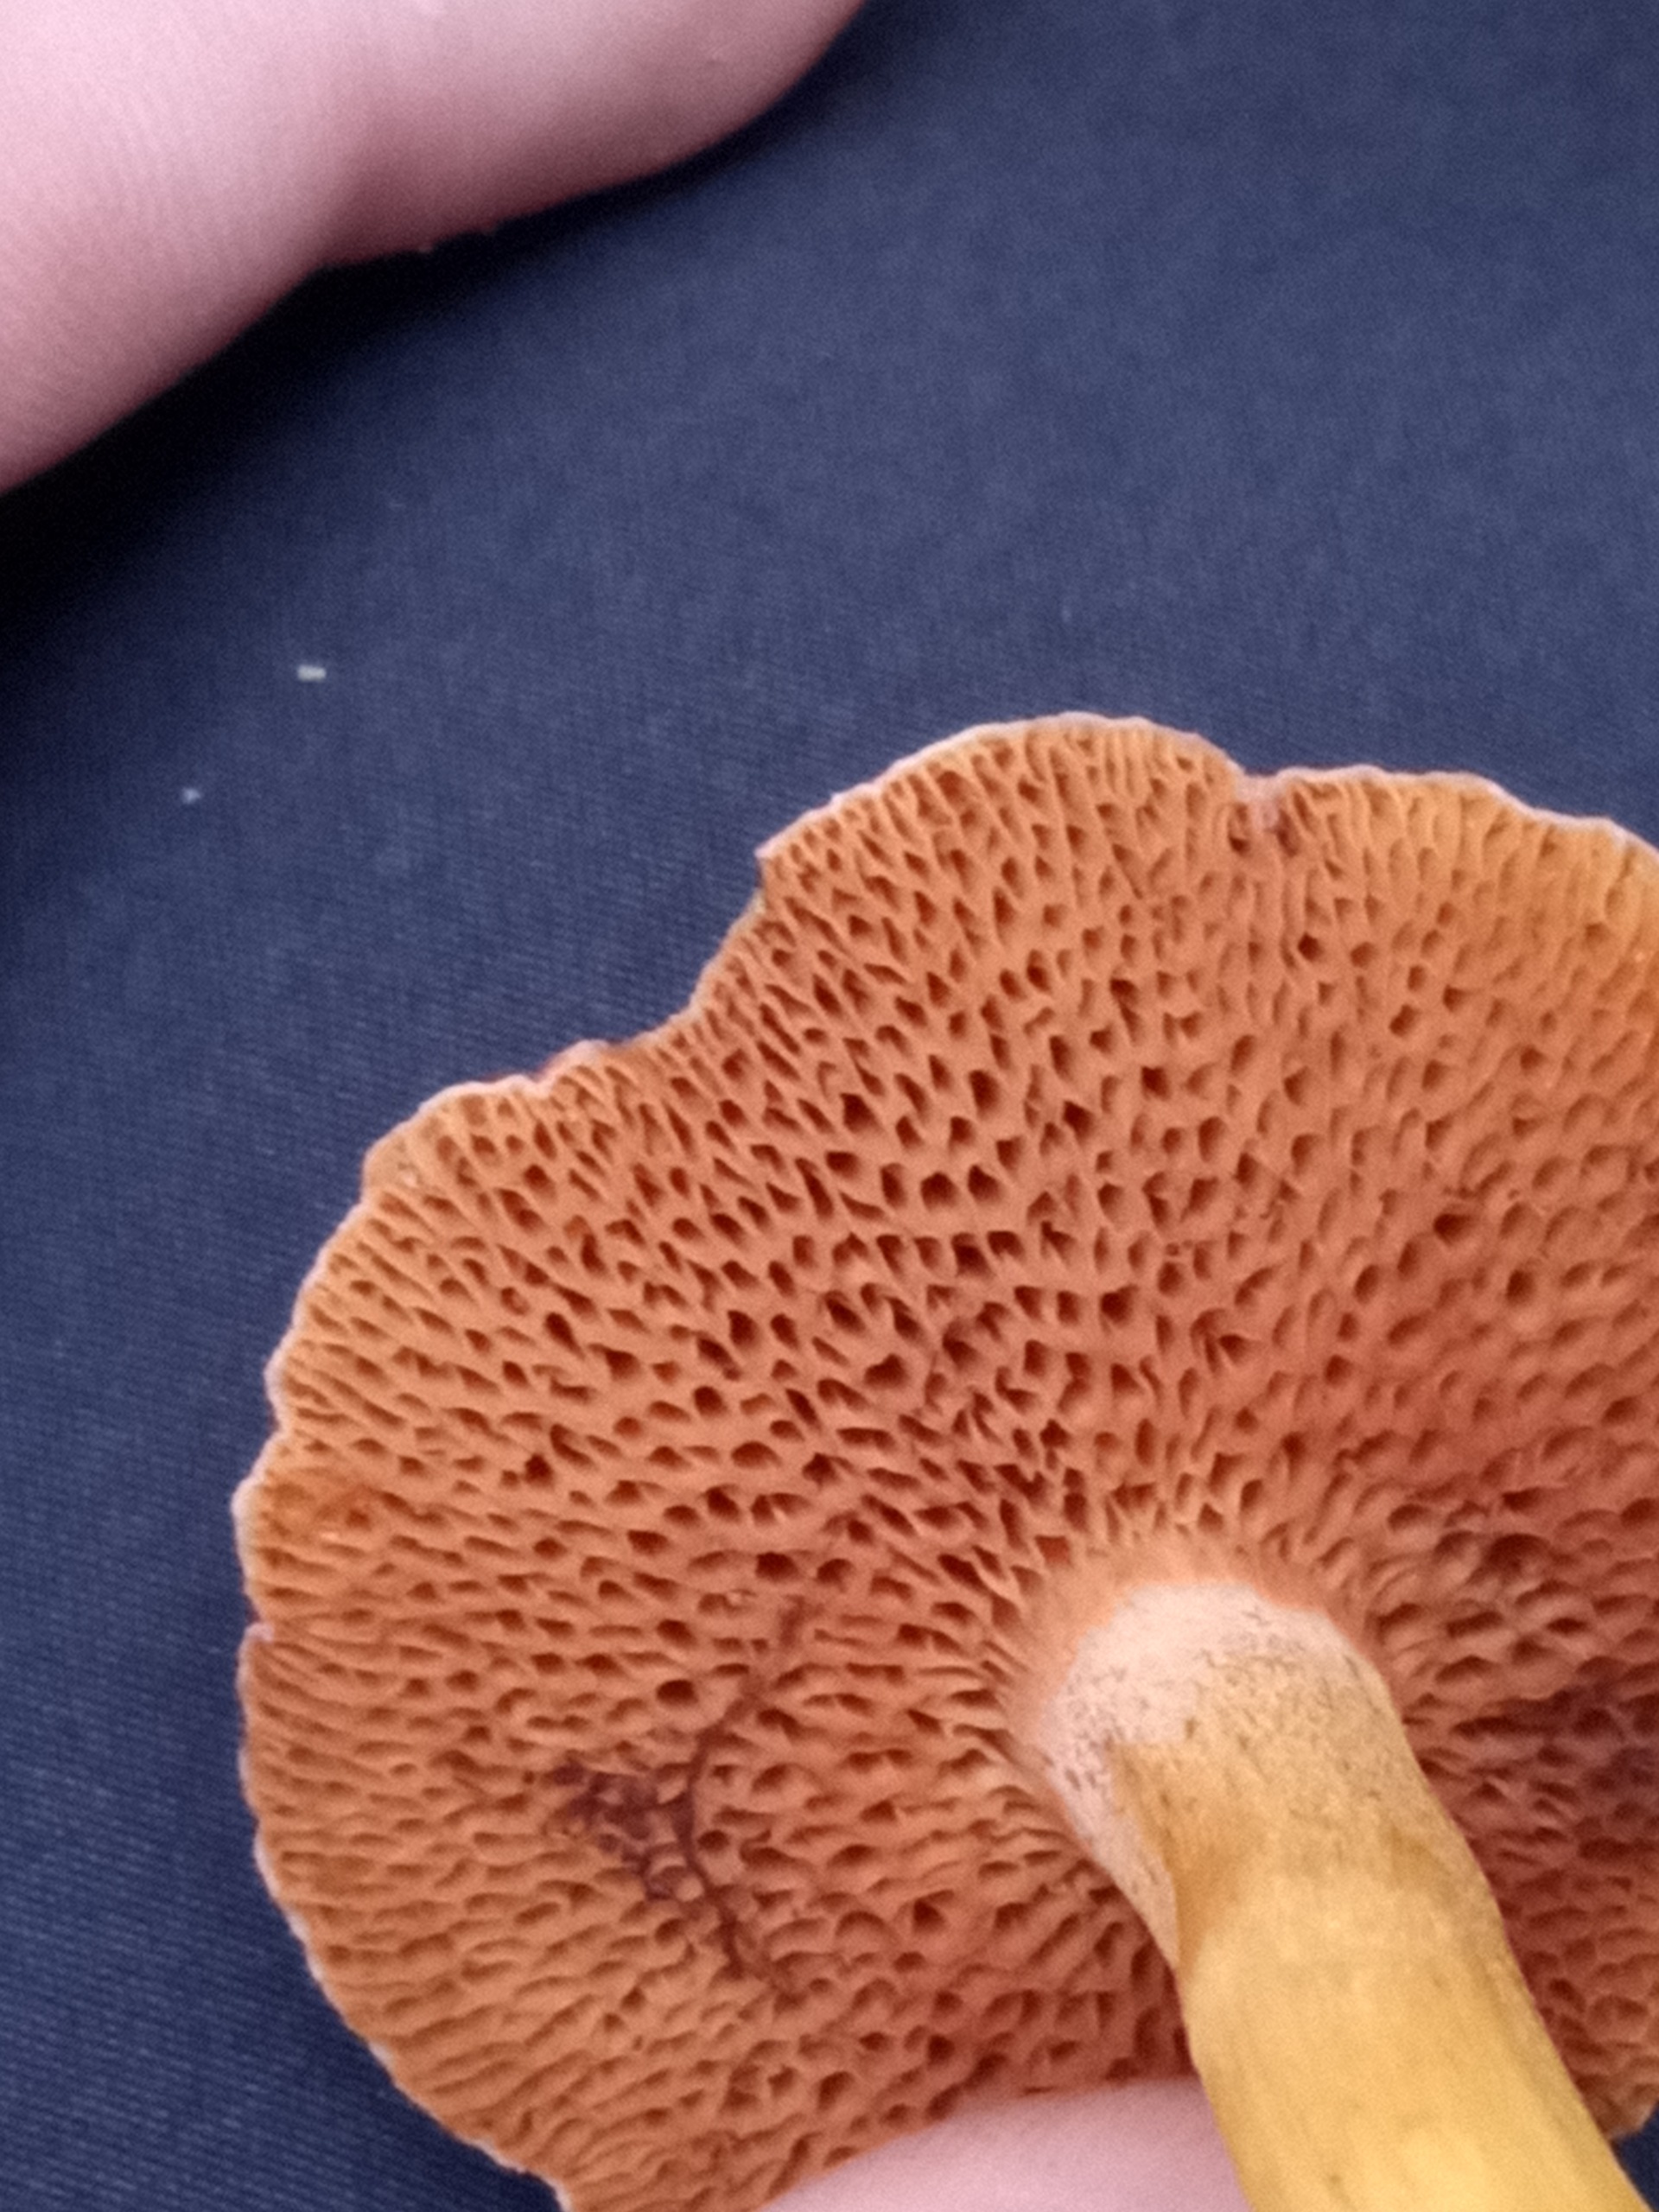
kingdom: Fungi
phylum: Basidiomycota
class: Agaricomycetes
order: Boletales
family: Boletaceae
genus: Chalciporus
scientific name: Chalciporus piperatus
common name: Peberrørhat
